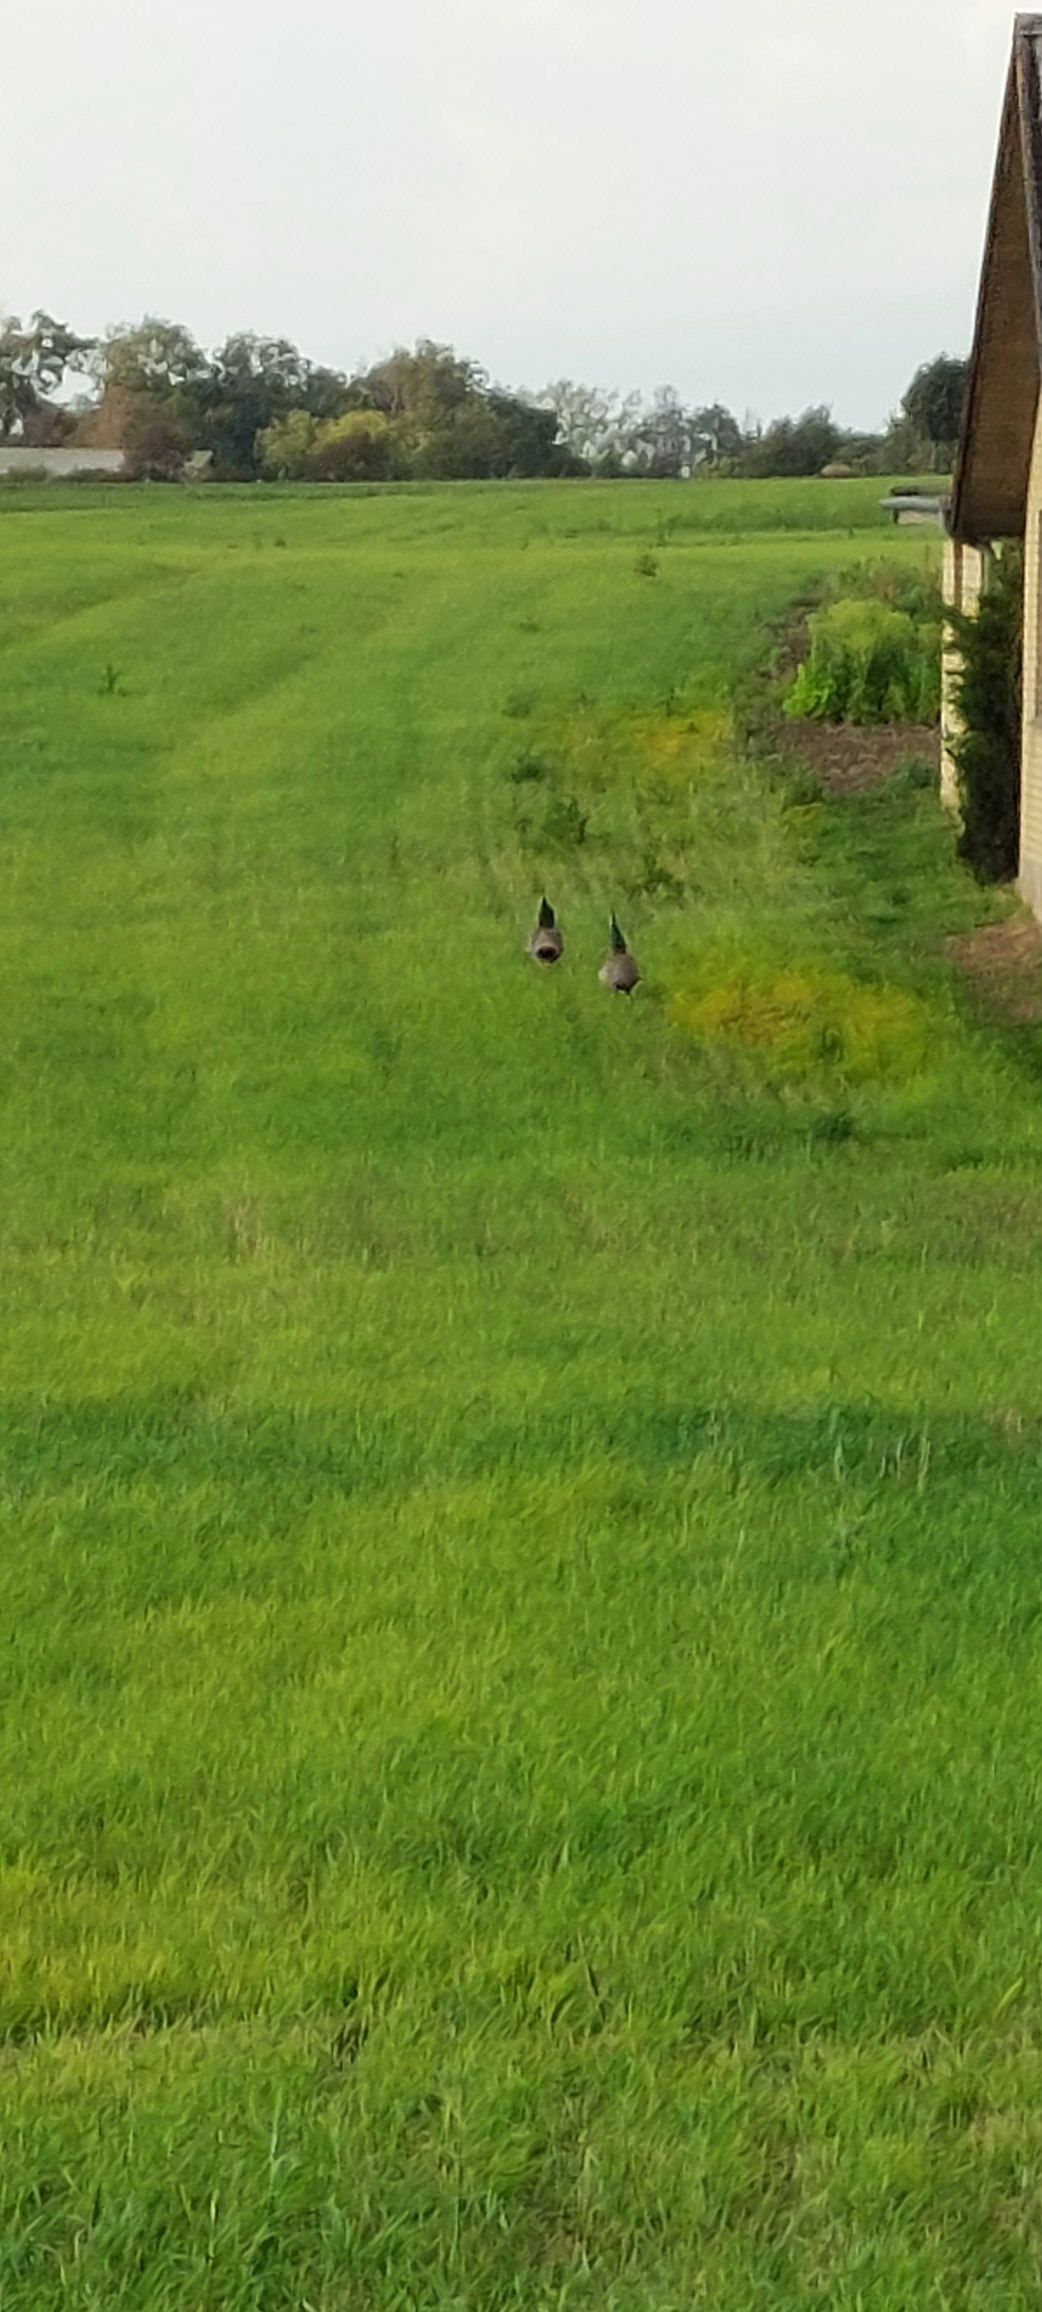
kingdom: Animalia
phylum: Chordata
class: Aves
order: Galliformes
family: Phasianidae
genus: Pavo
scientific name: Pavo cristatus
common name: Påfugl
